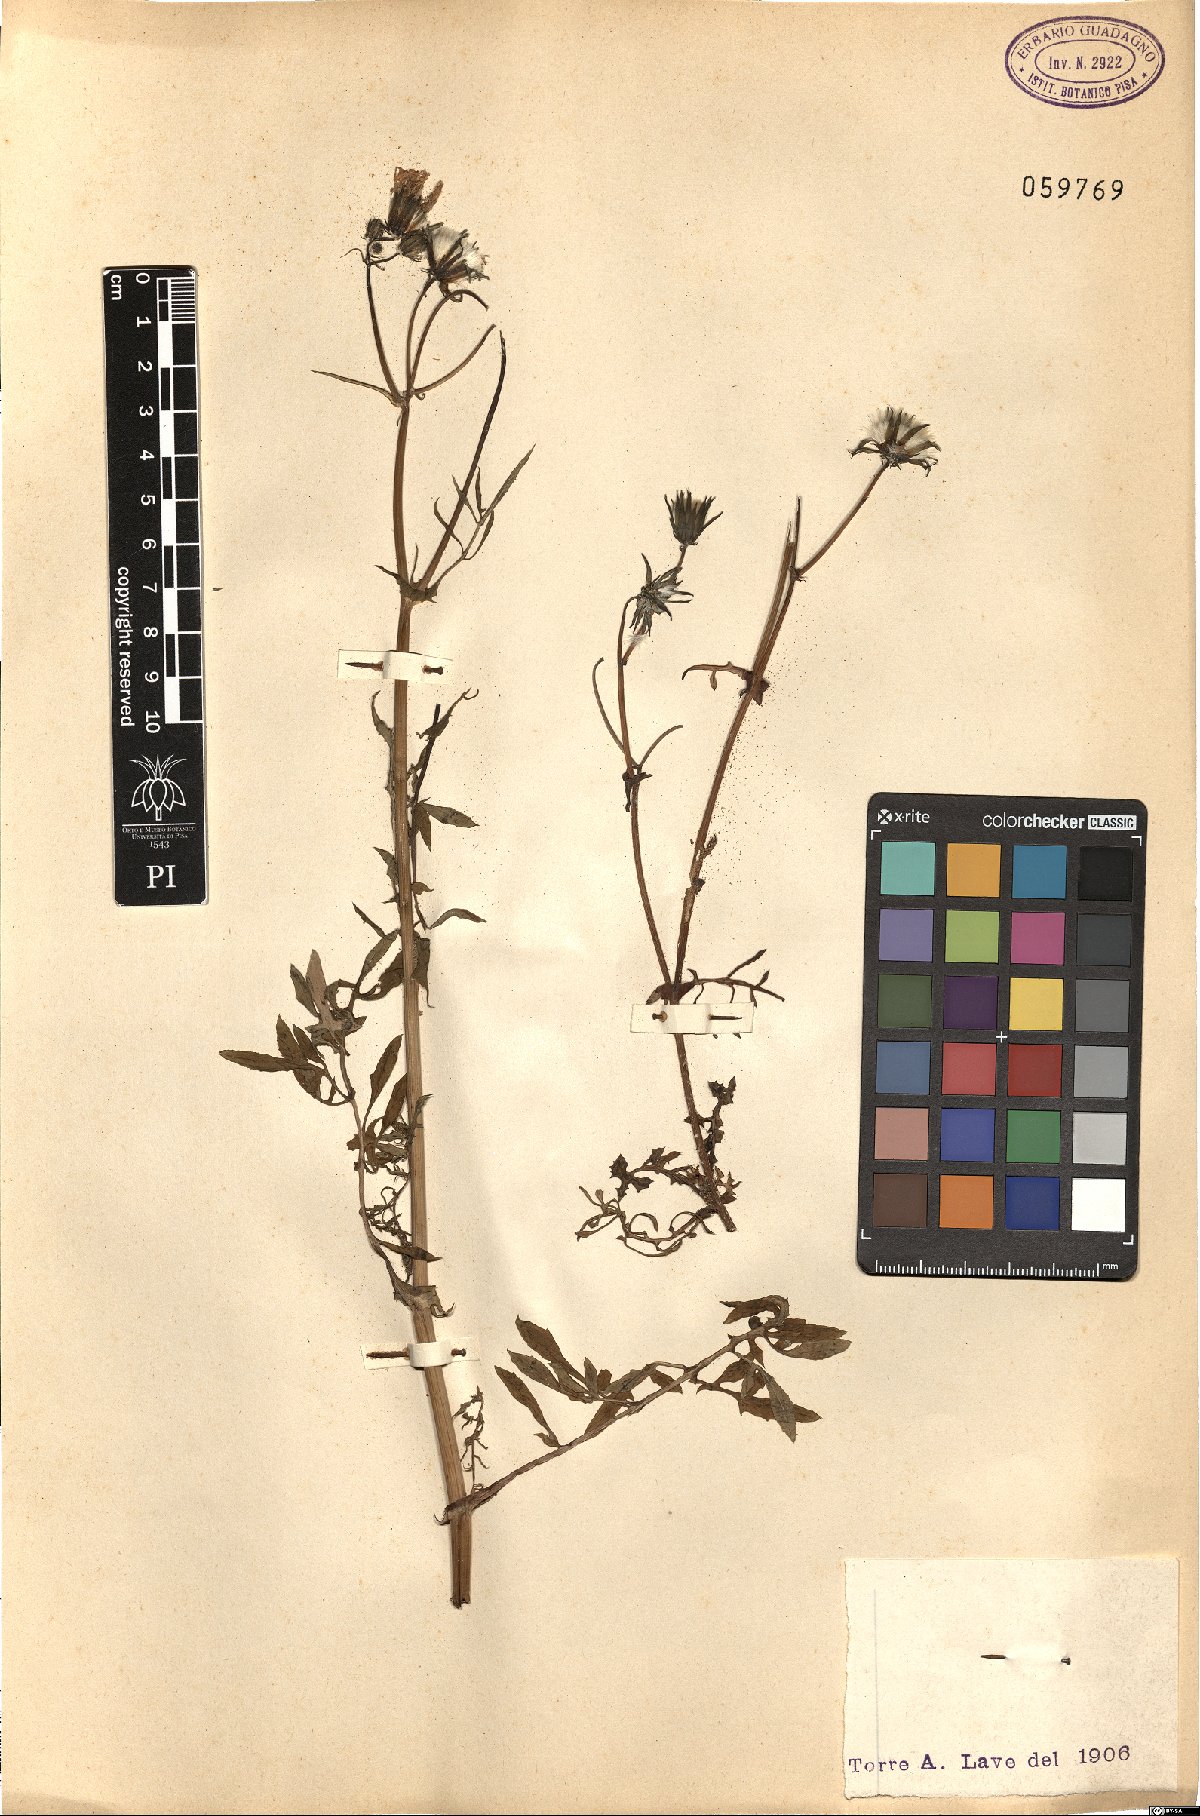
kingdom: Plantae
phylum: Tracheophyta
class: Magnoliopsida
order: Asterales
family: Asteraceae
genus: Lactuca
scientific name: Lactuca perennis
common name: Mountain lettuce
